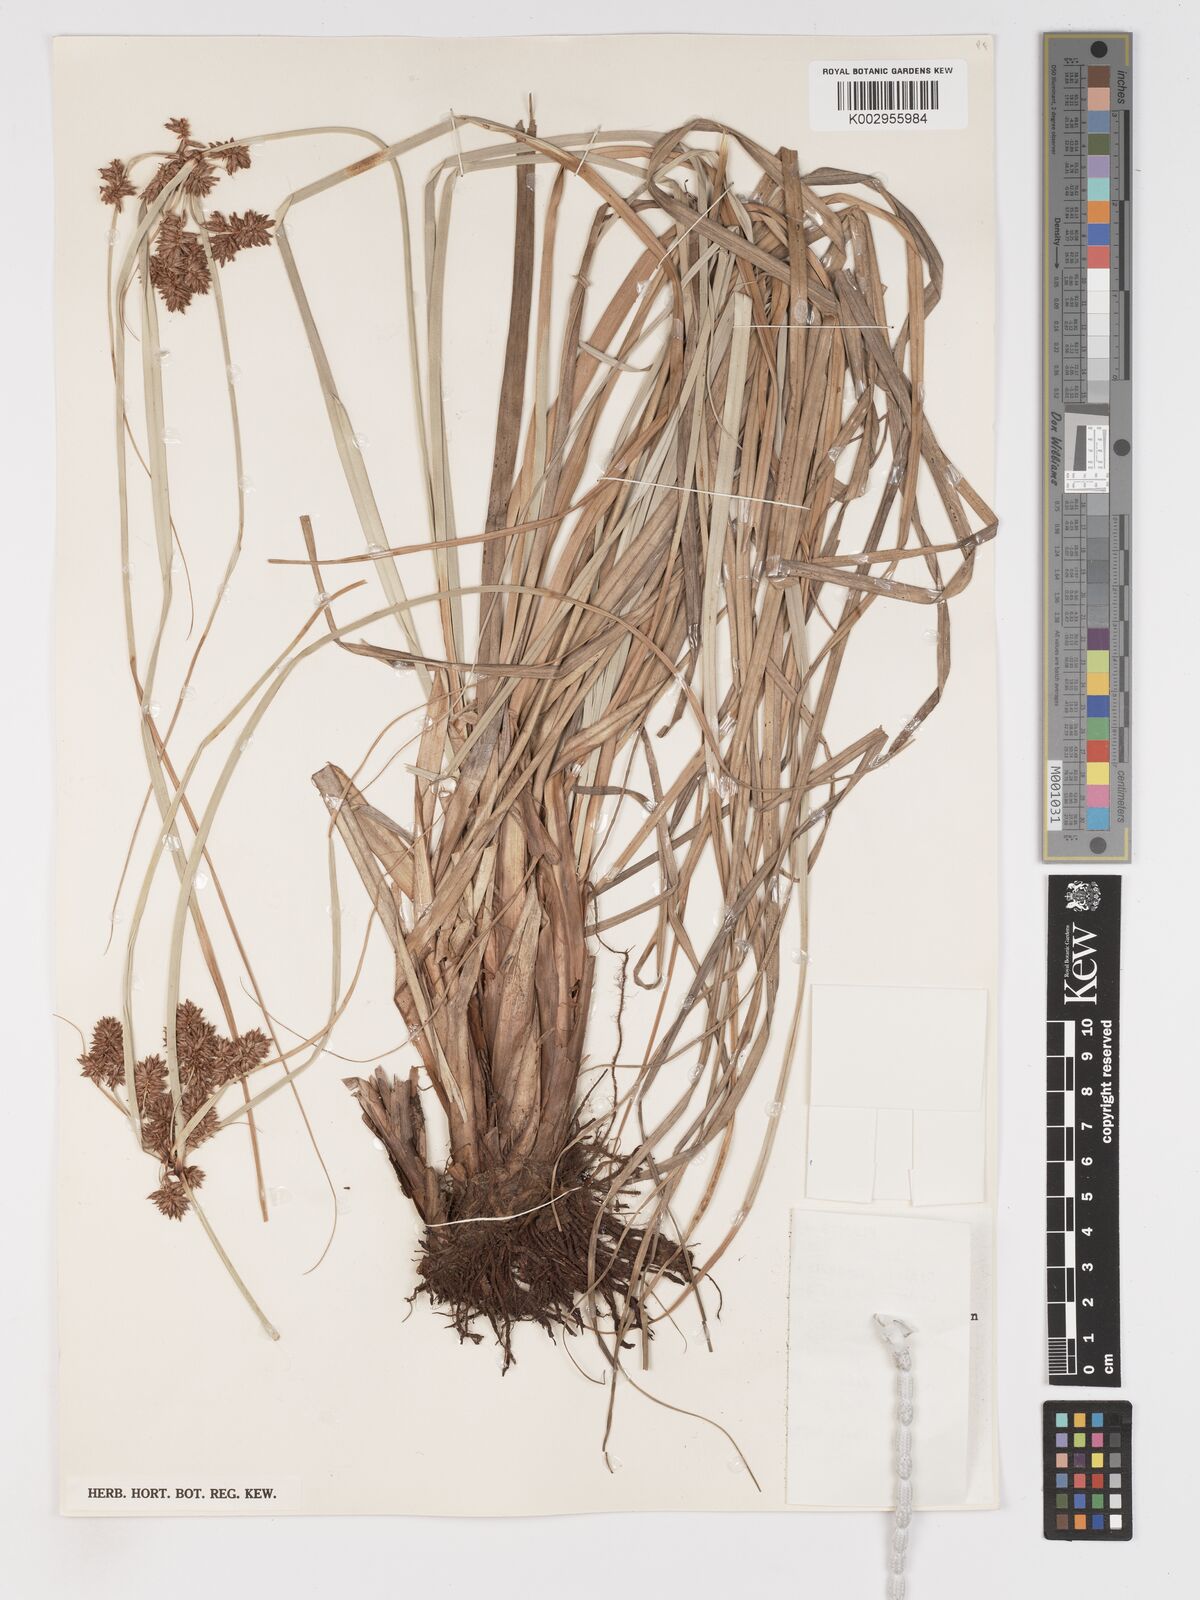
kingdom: Plantae
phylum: Tracheophyta
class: Liliopsida
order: Poales
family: Cyperaceae
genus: Cyperus
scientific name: Cyperus ligularis
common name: Swamp flat sedge
